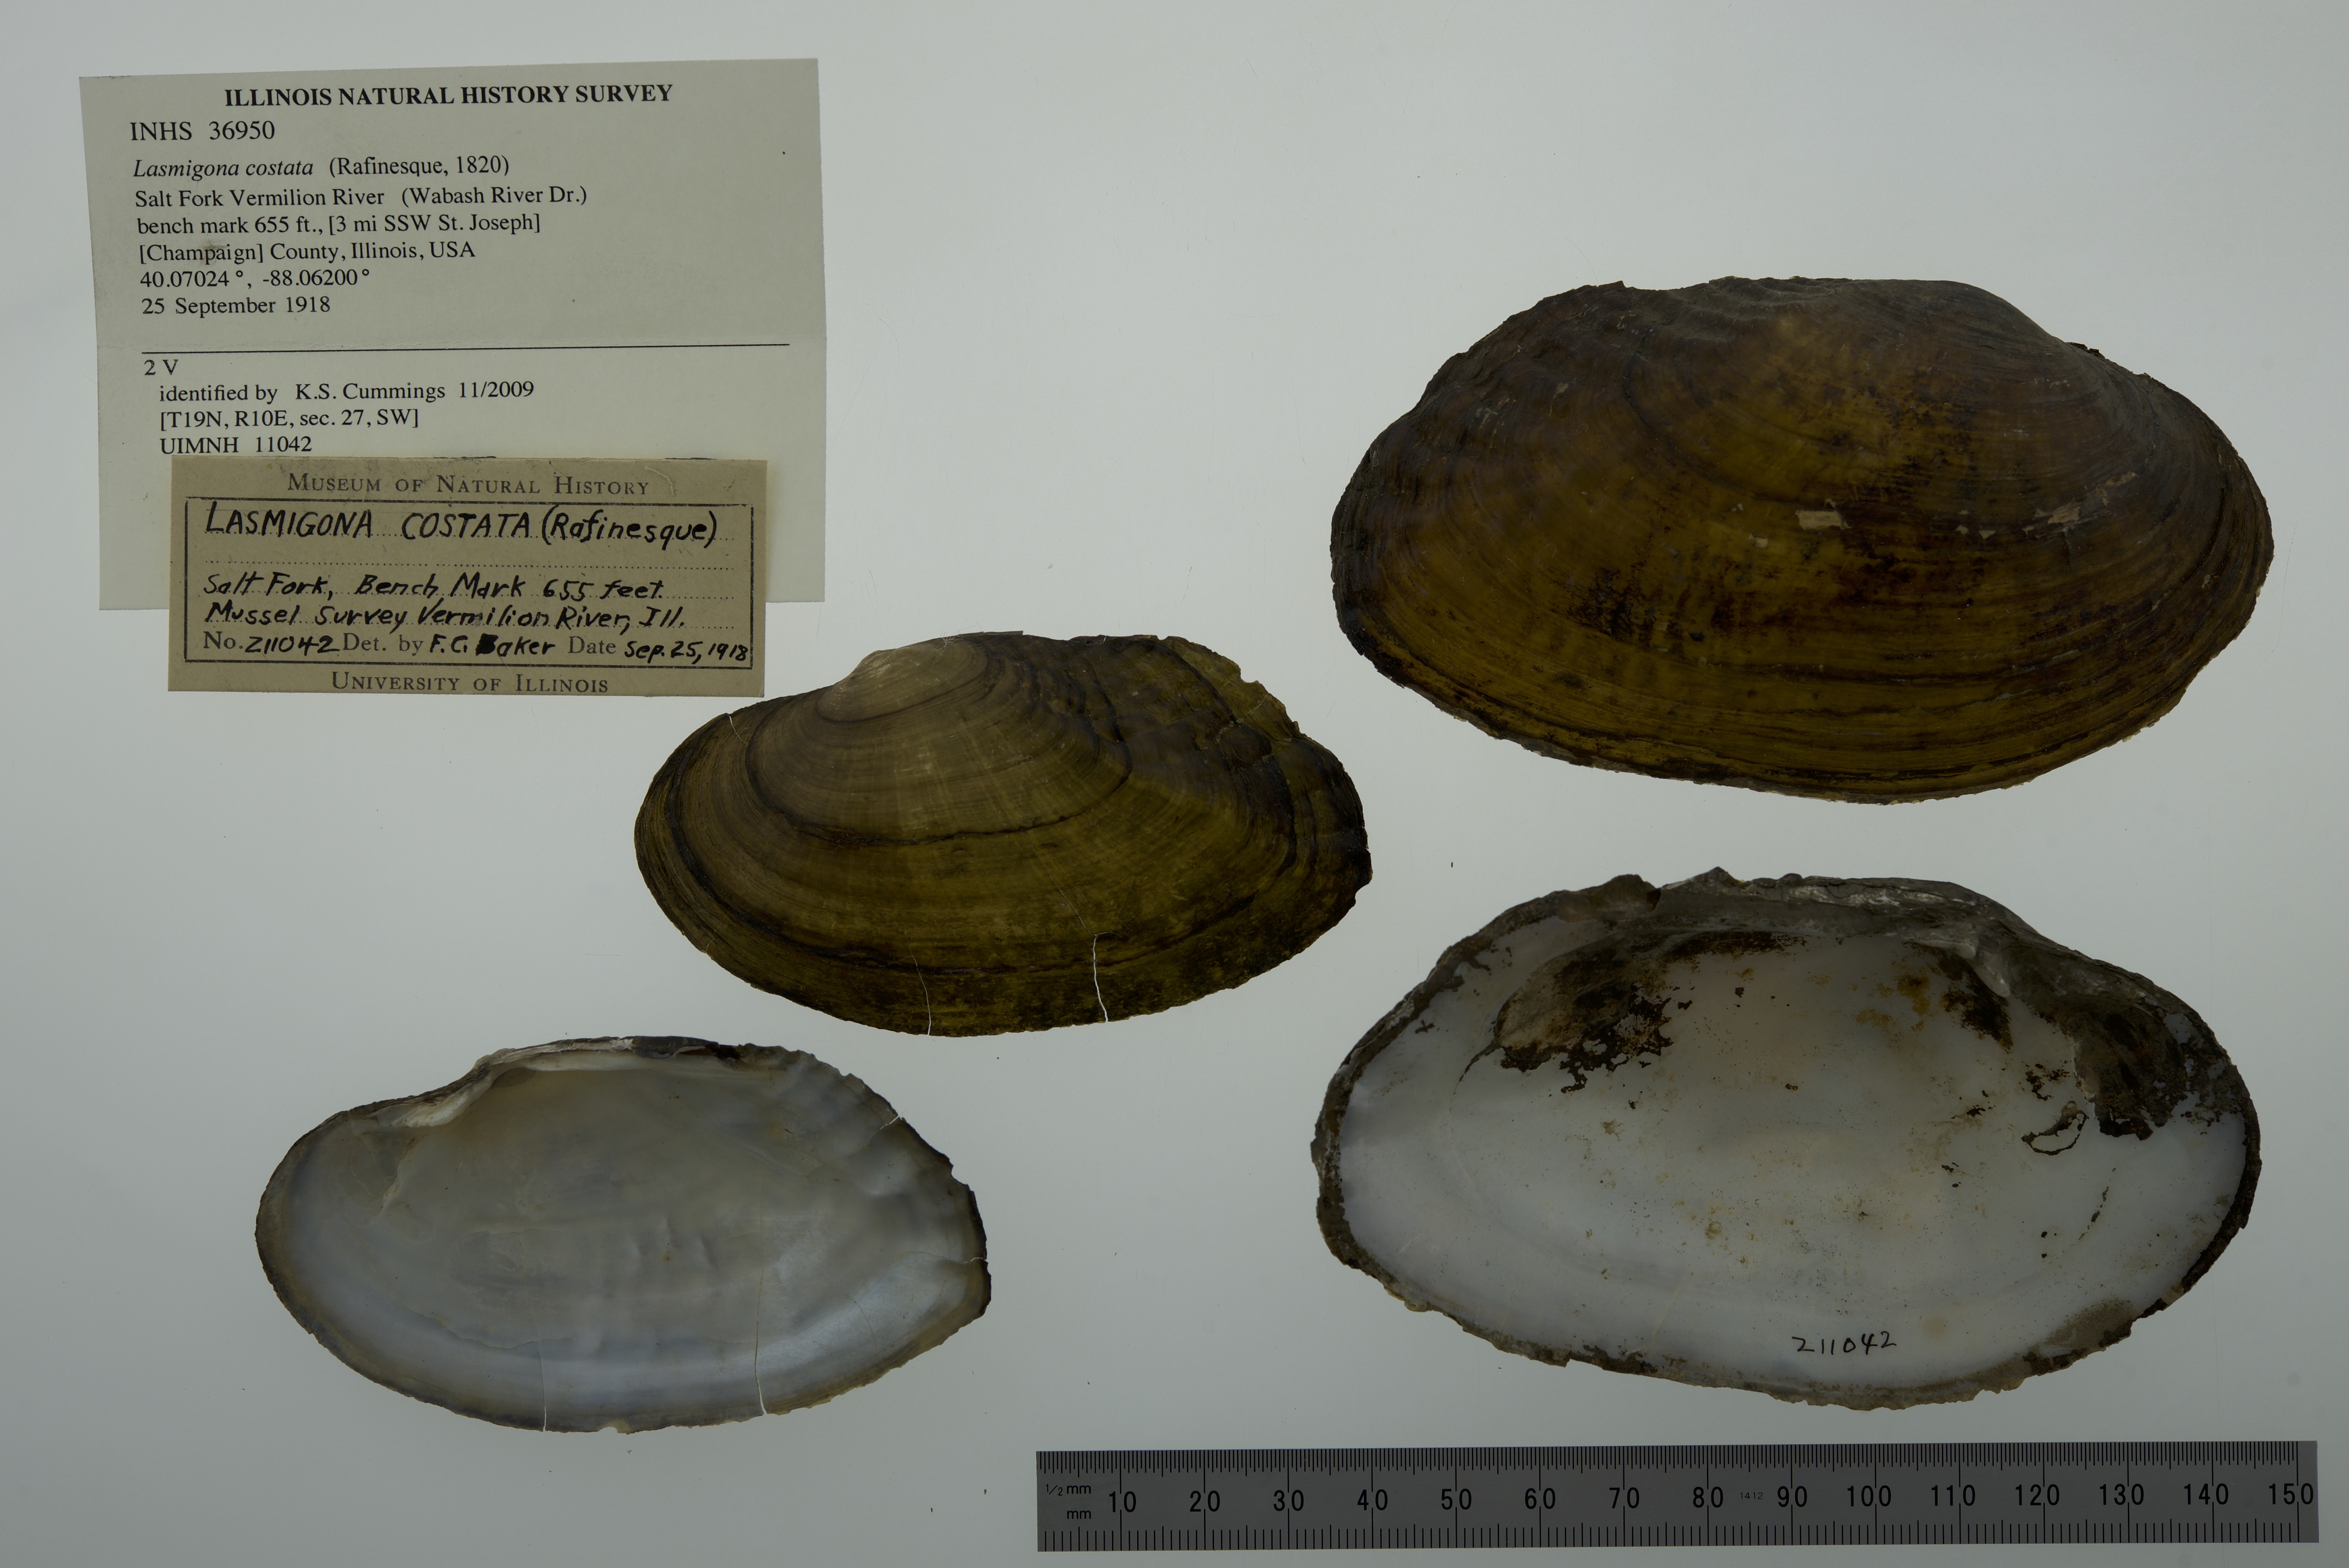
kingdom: Animalia
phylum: Mollusca
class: Bivalvia
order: Unionida
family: Unionidae
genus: Lasmigona
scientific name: Lasmigona costata
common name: Flutedshell
